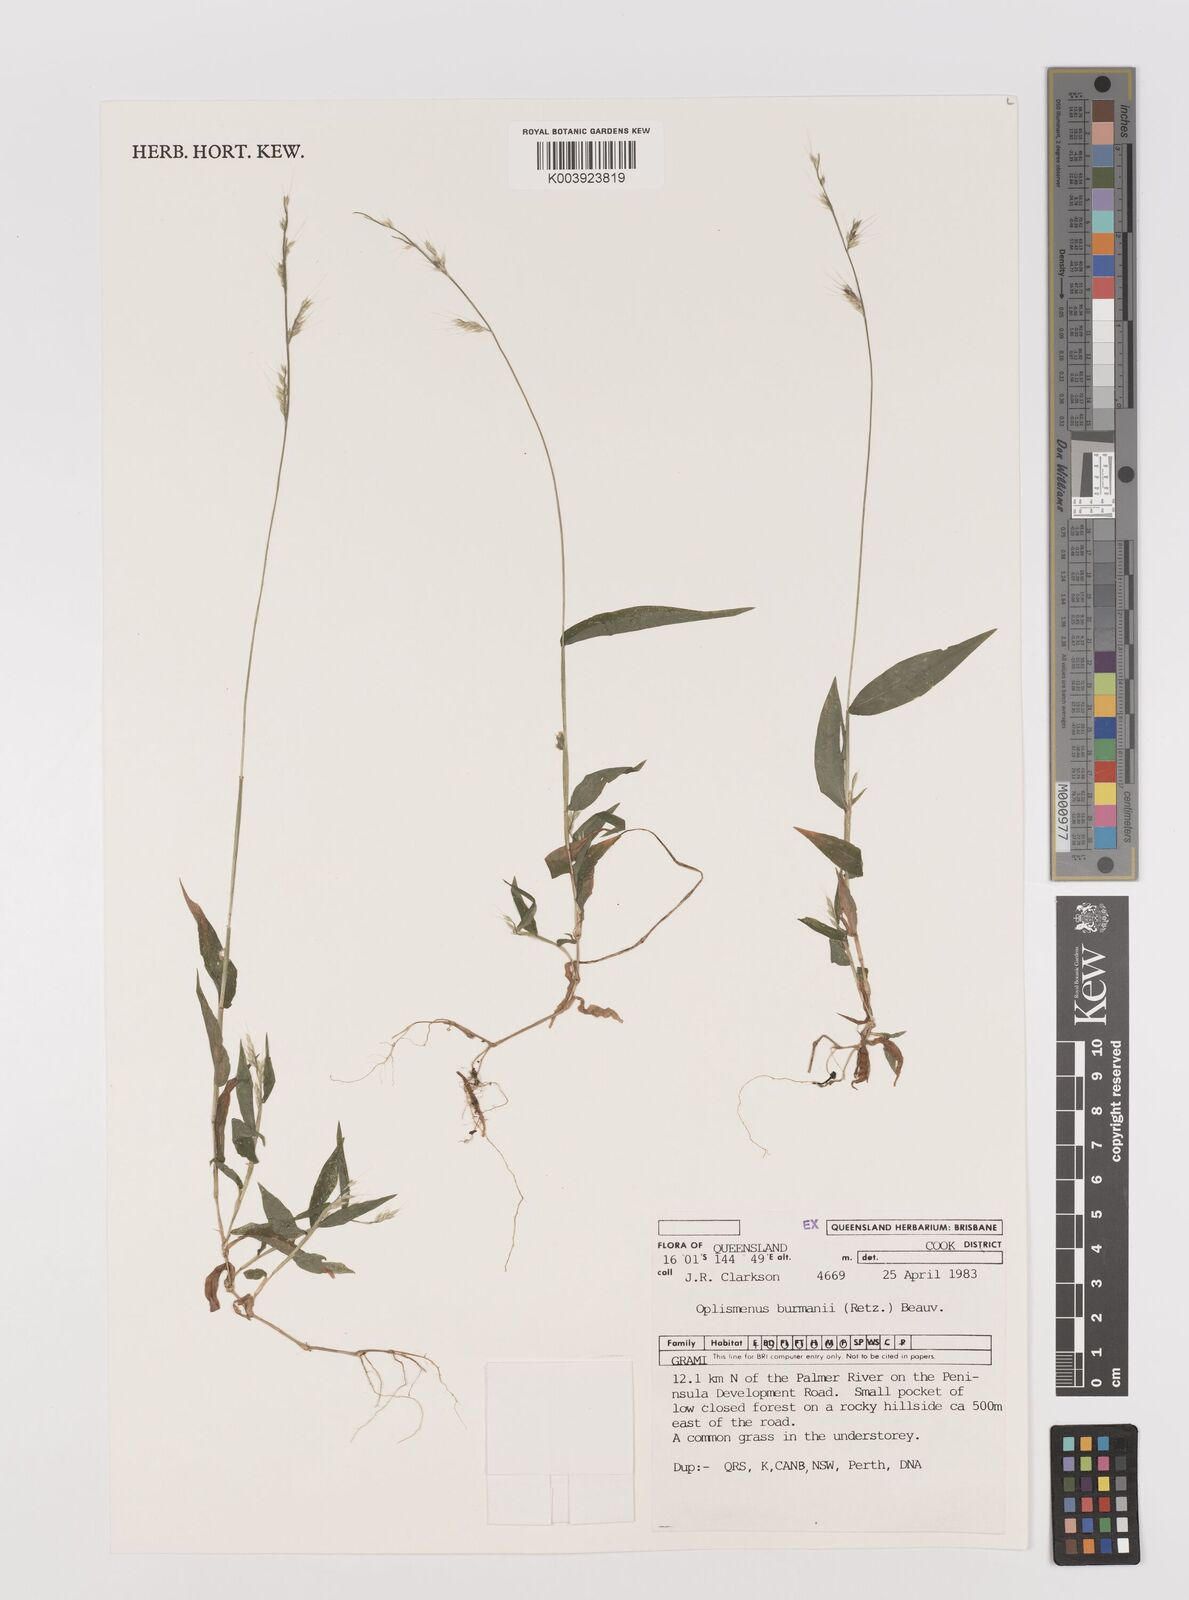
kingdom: Plantae
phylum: Tracheophyta
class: Liliopsida
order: Poales
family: Poaceae
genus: Oplismenus
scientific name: Oplismenus burmanni
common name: Burmann's basketgrass
